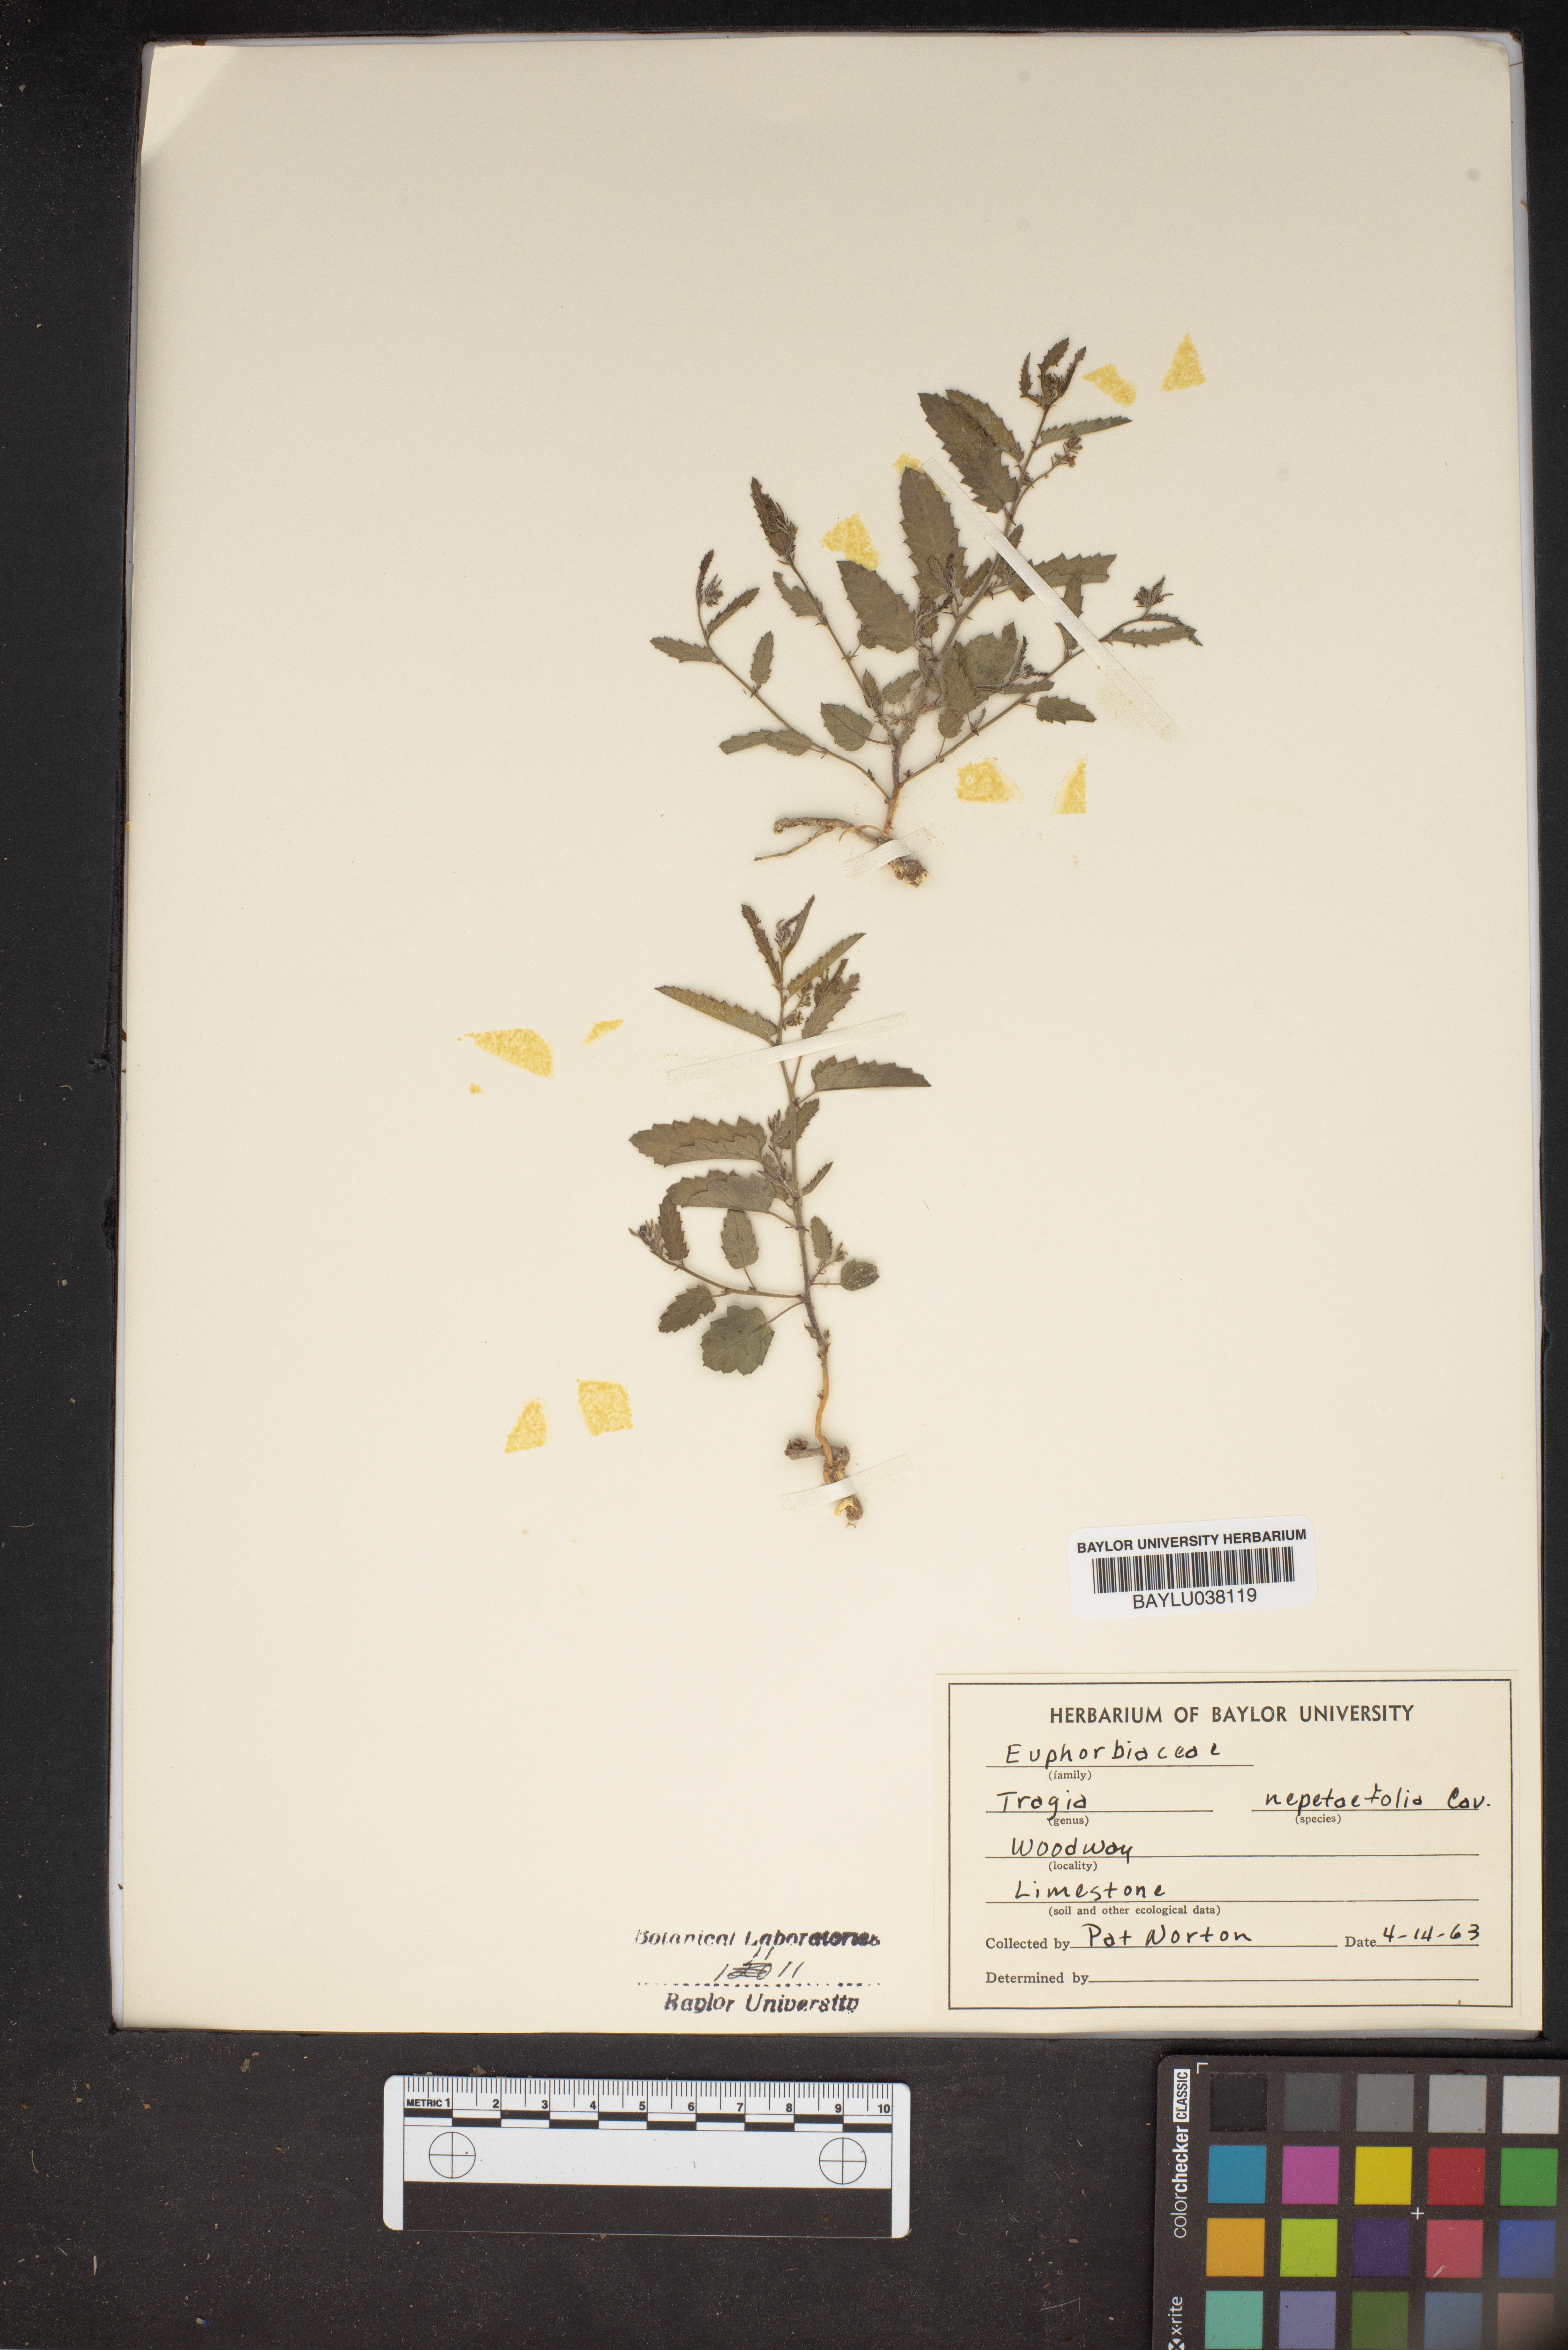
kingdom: Plantae
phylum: Tracheophyta
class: Magnoliopsida
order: Malpighiales
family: Euphorbiaceae
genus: Tragia
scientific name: Tragia bahiensis
